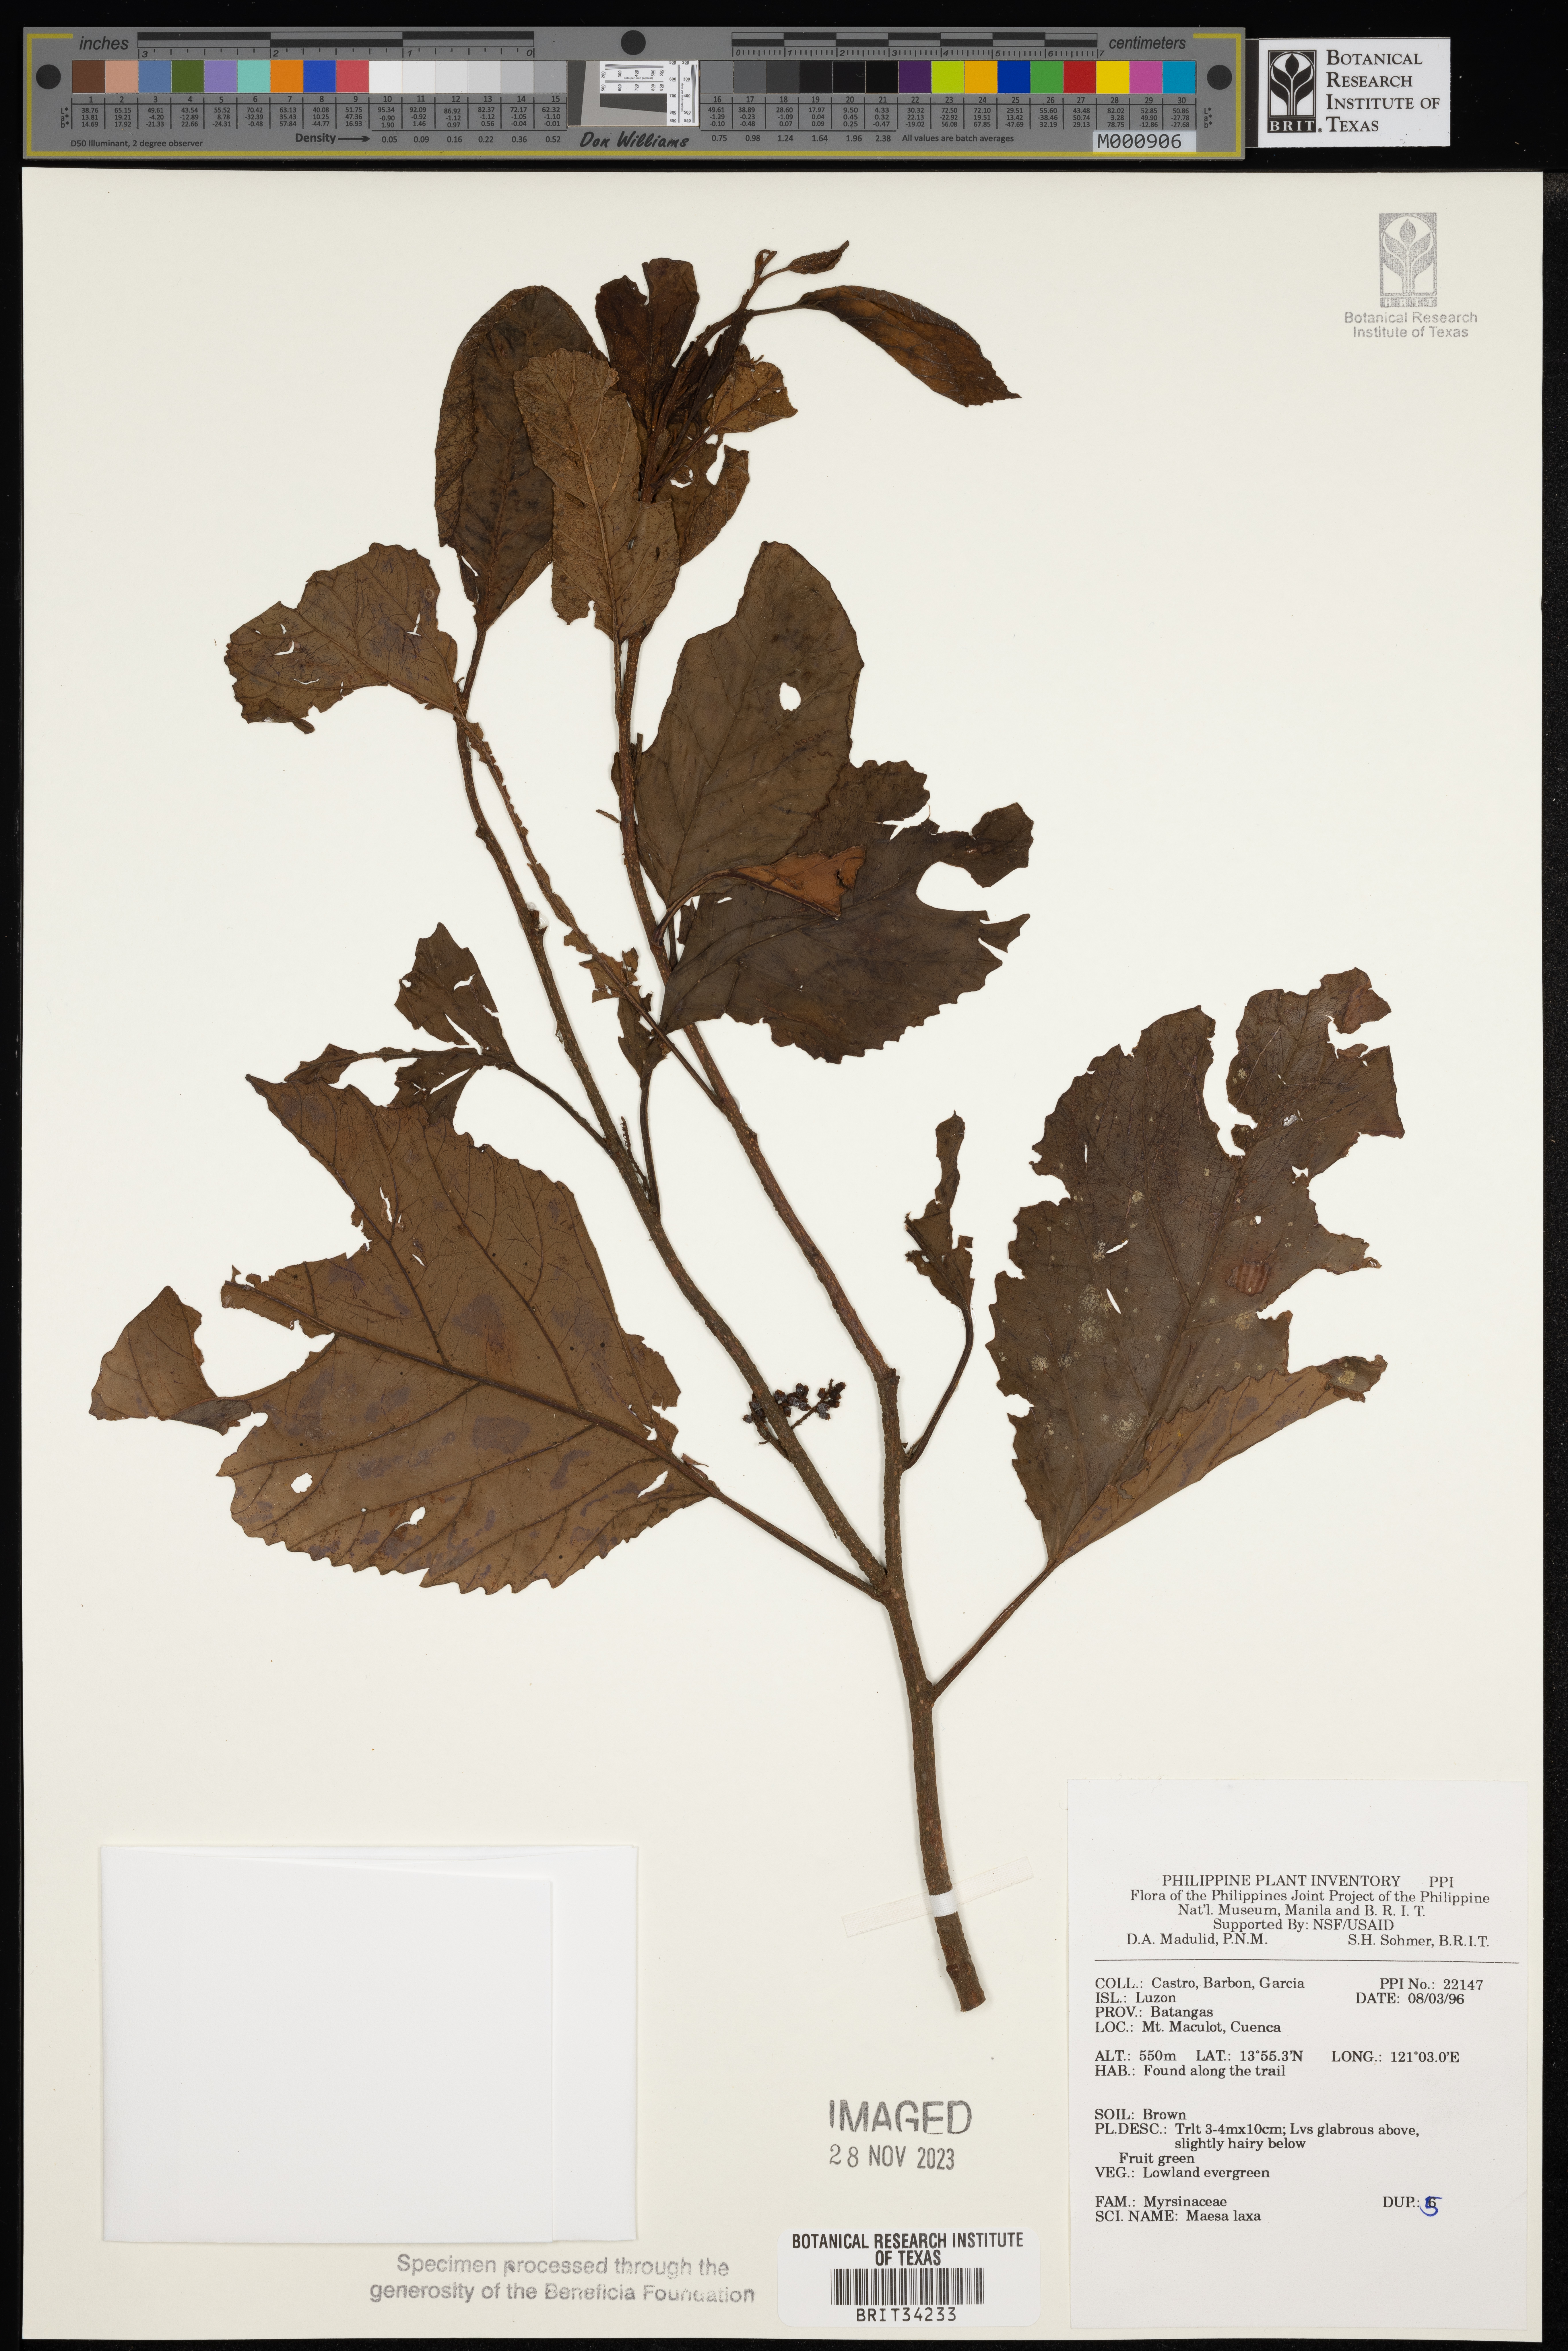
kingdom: Plantae
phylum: Tracheophyta
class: Magnoliopsida
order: Ericales
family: Primulaceae
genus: Maesa
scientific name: Maesa indica
